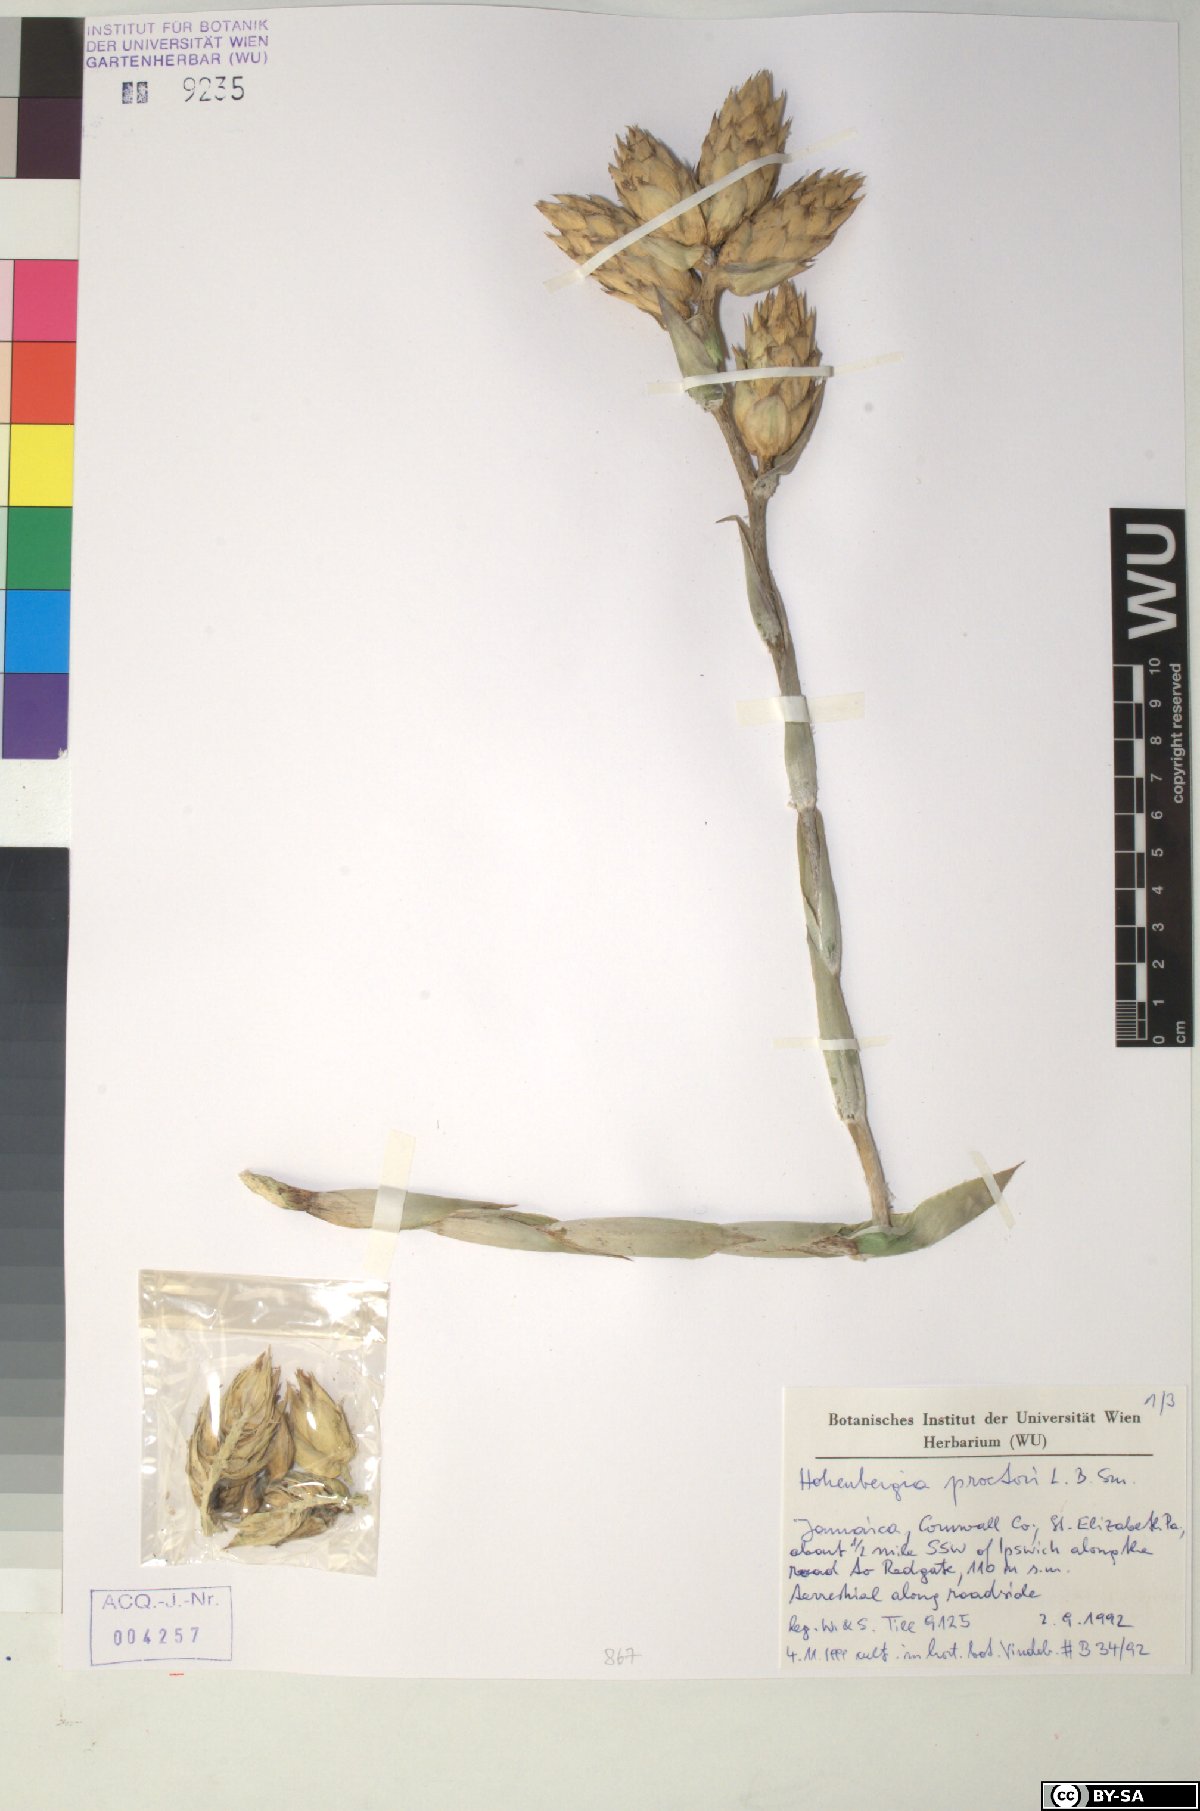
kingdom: Plantae
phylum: Tracheophyta
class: Liliopsida
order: Poales
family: Bromeliaceae
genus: Wittmackia
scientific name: Wittmackia urbaniana
